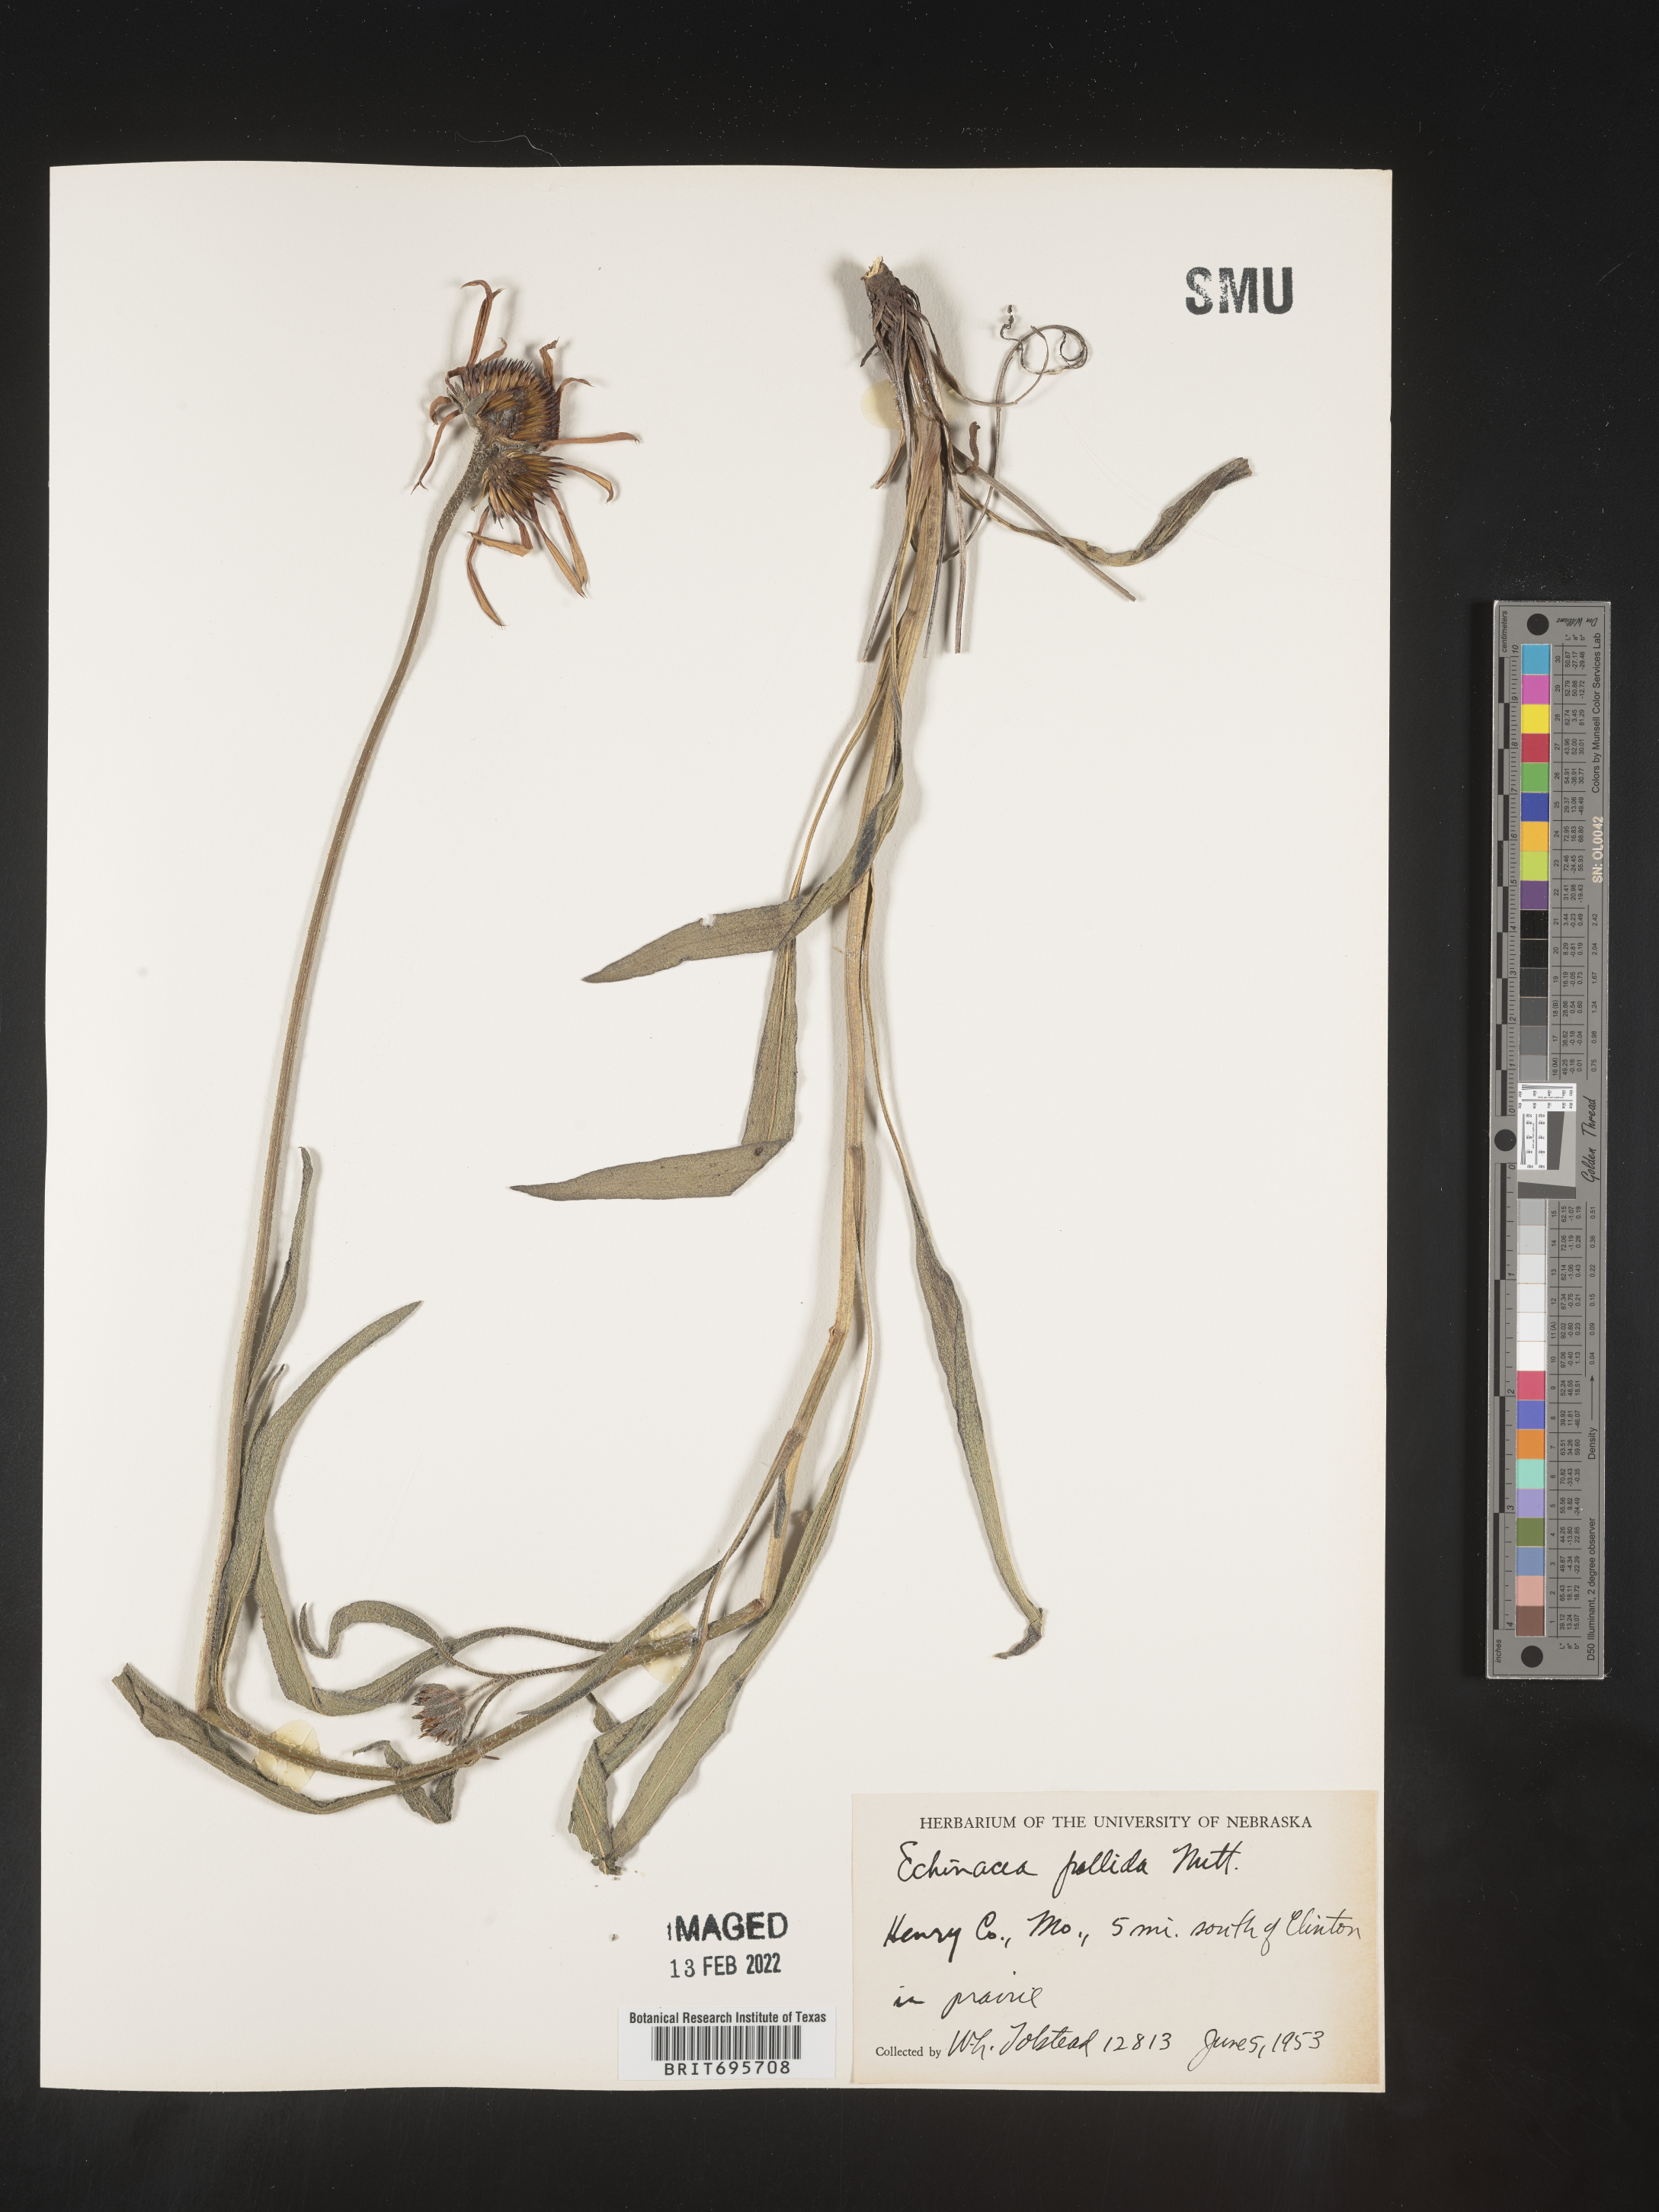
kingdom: Plantae
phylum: Tracheophyta
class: Magnoliopsida
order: Asterales
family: Asteraceae
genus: Echinacea
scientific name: Echinacea pallida
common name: Pale echinacea
